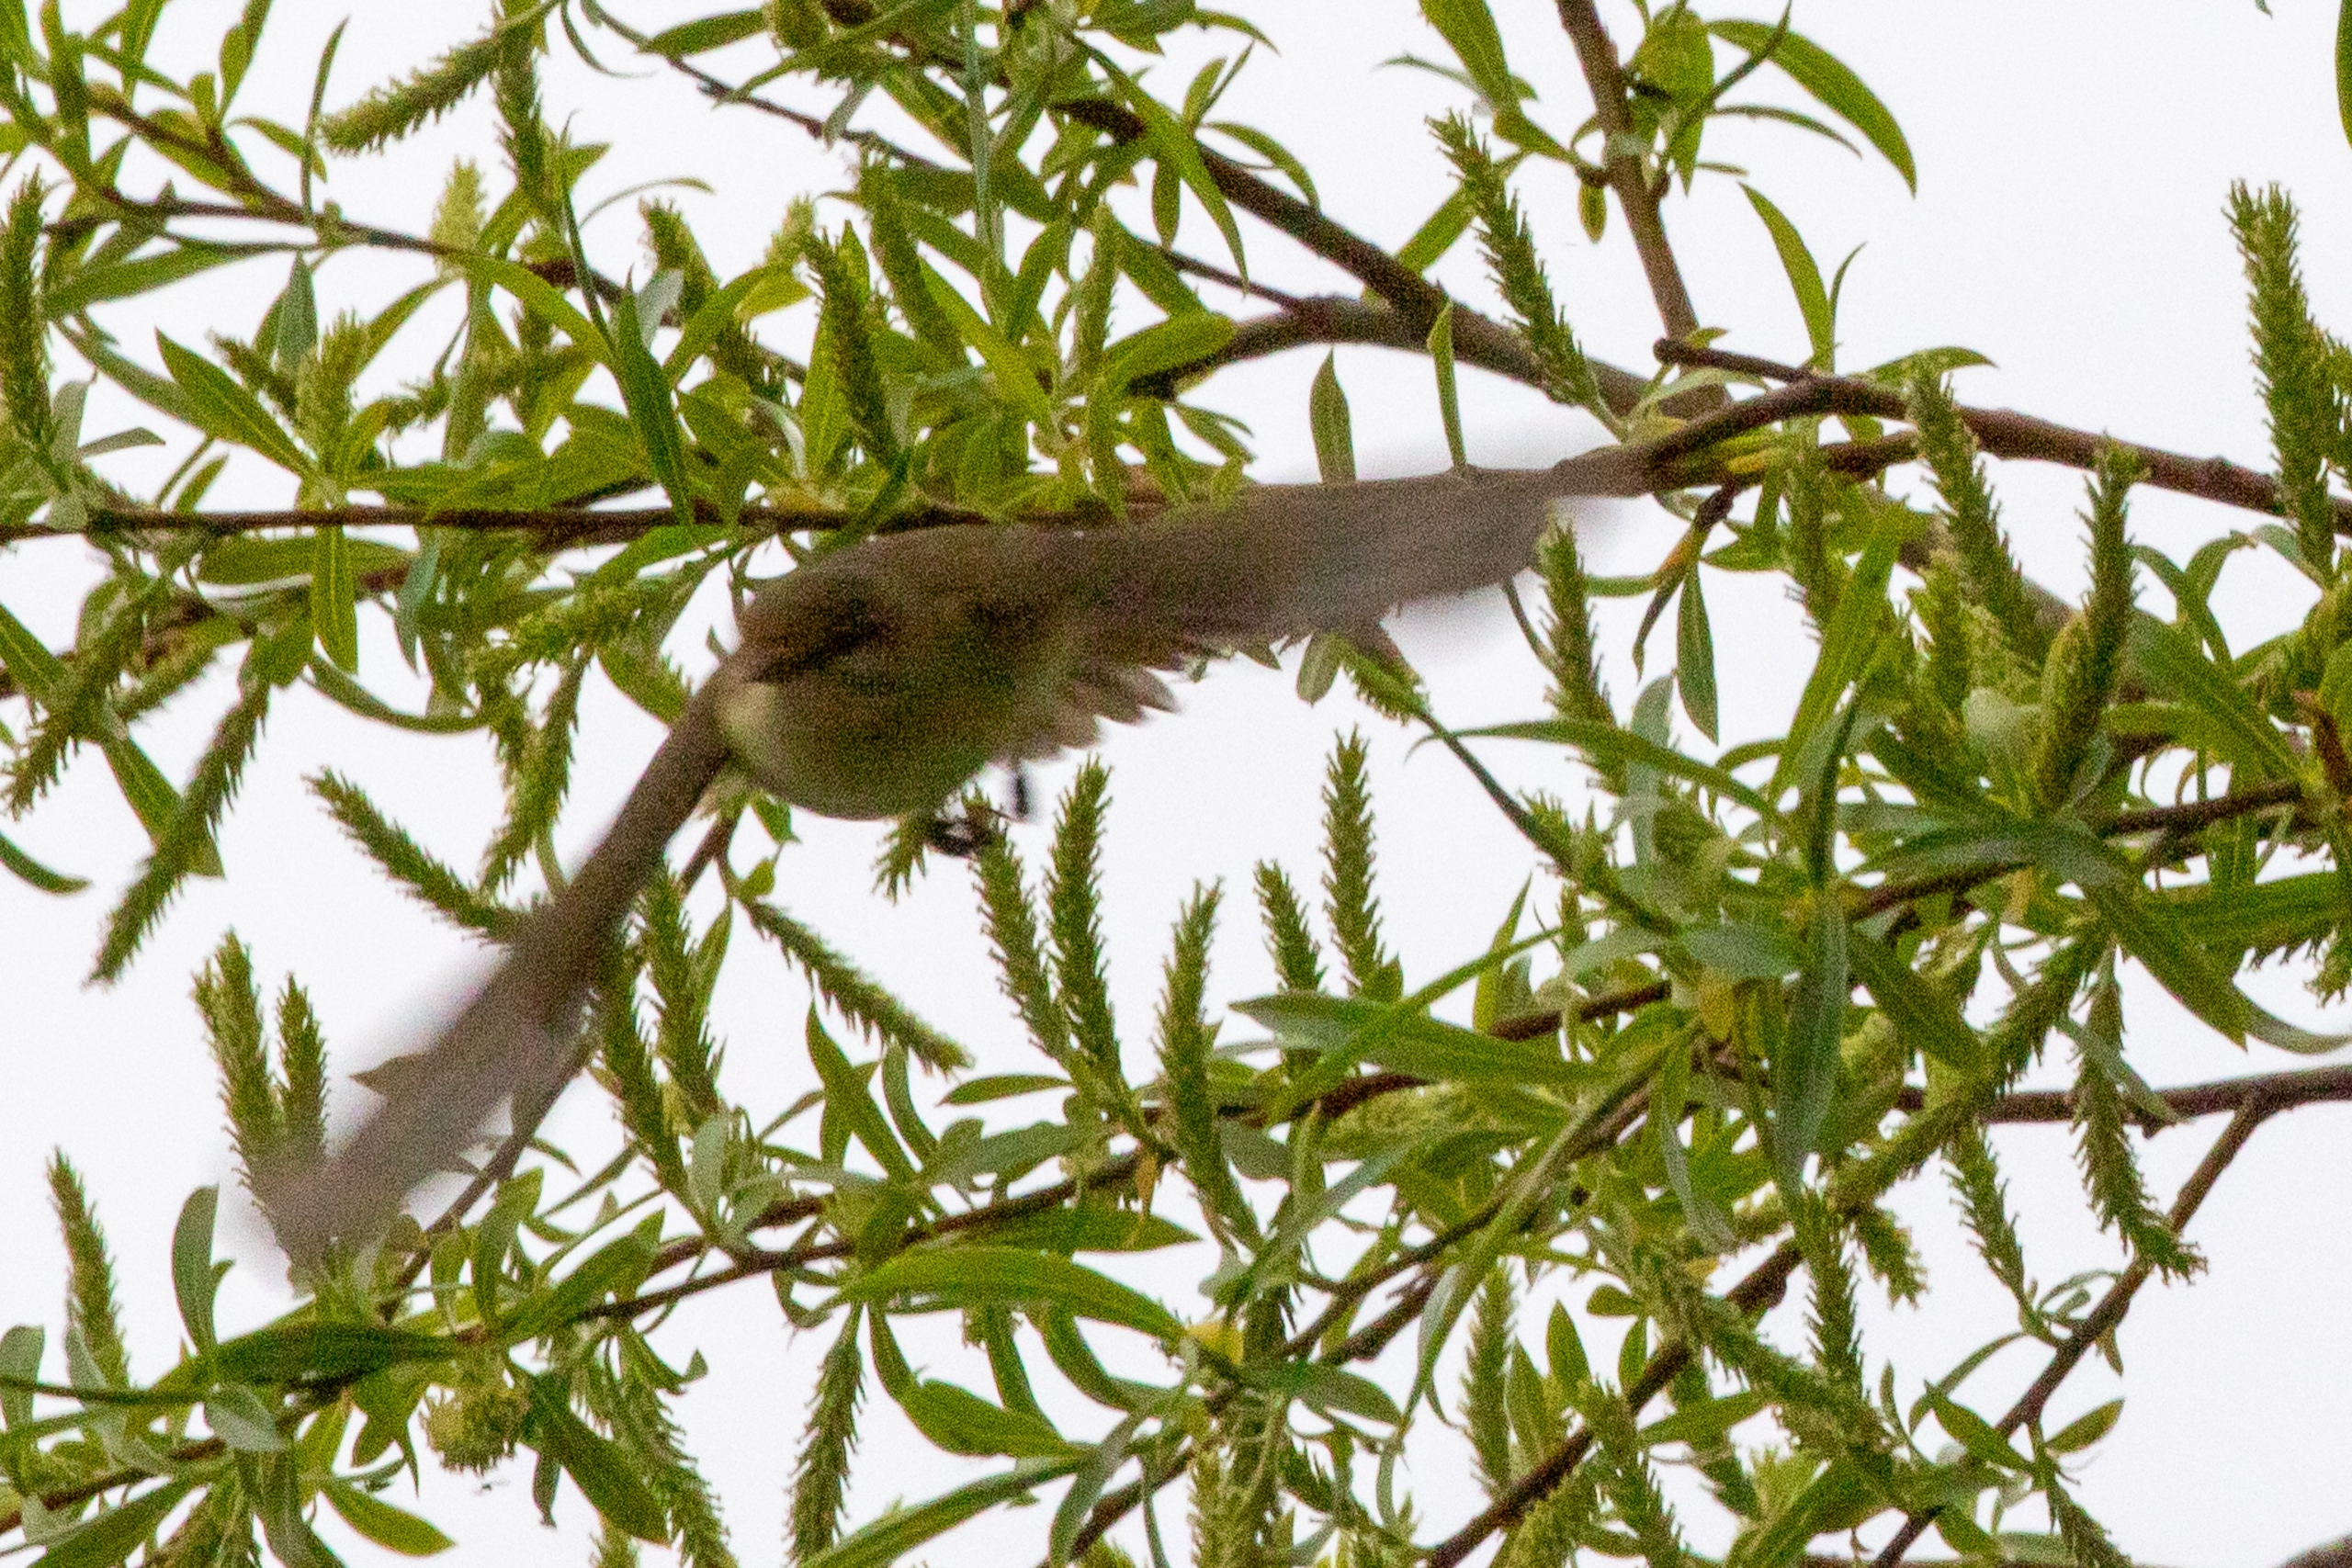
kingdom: Animalia
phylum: Chordata
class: Aves
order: Passeriformes
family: Phylloscopidae
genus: Phylloscopus
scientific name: Phylloscopus trochilus
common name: Løvsanger
